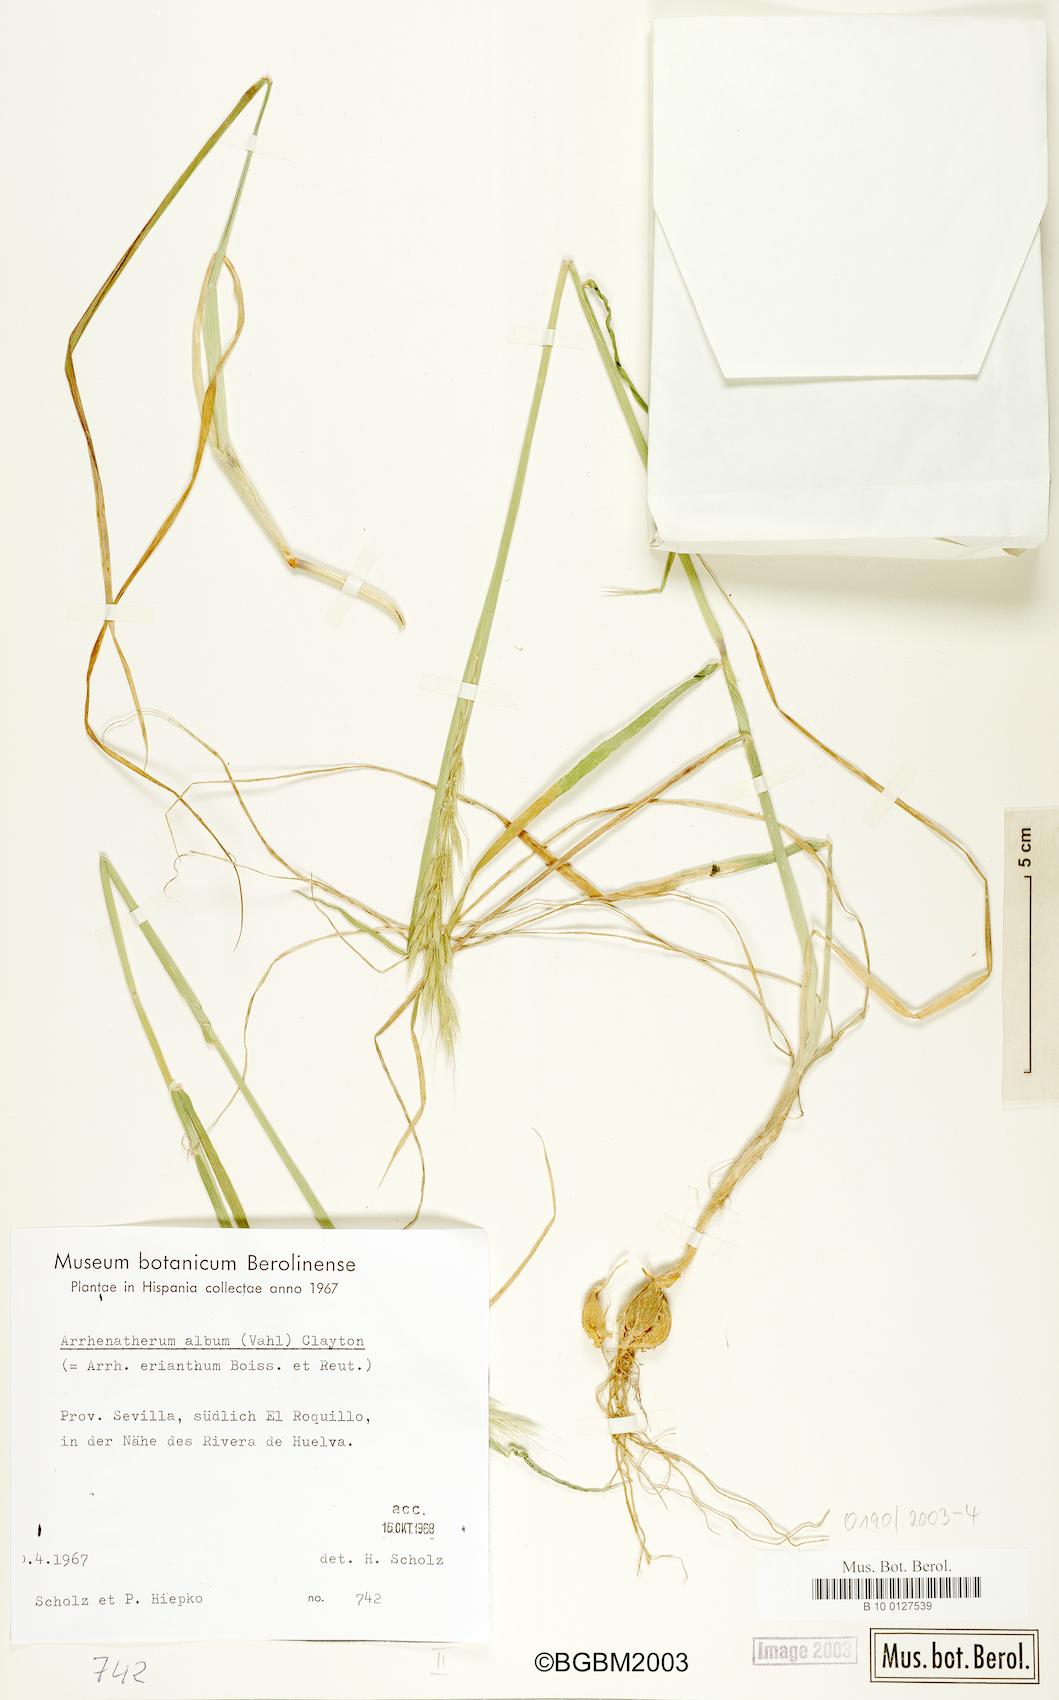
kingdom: Plantae
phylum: Tracheophyta
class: Liliopsida
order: Poales
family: Poaceae
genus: Arrhenatherum
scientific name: Arrhenatherum album
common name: Tall oat grass
